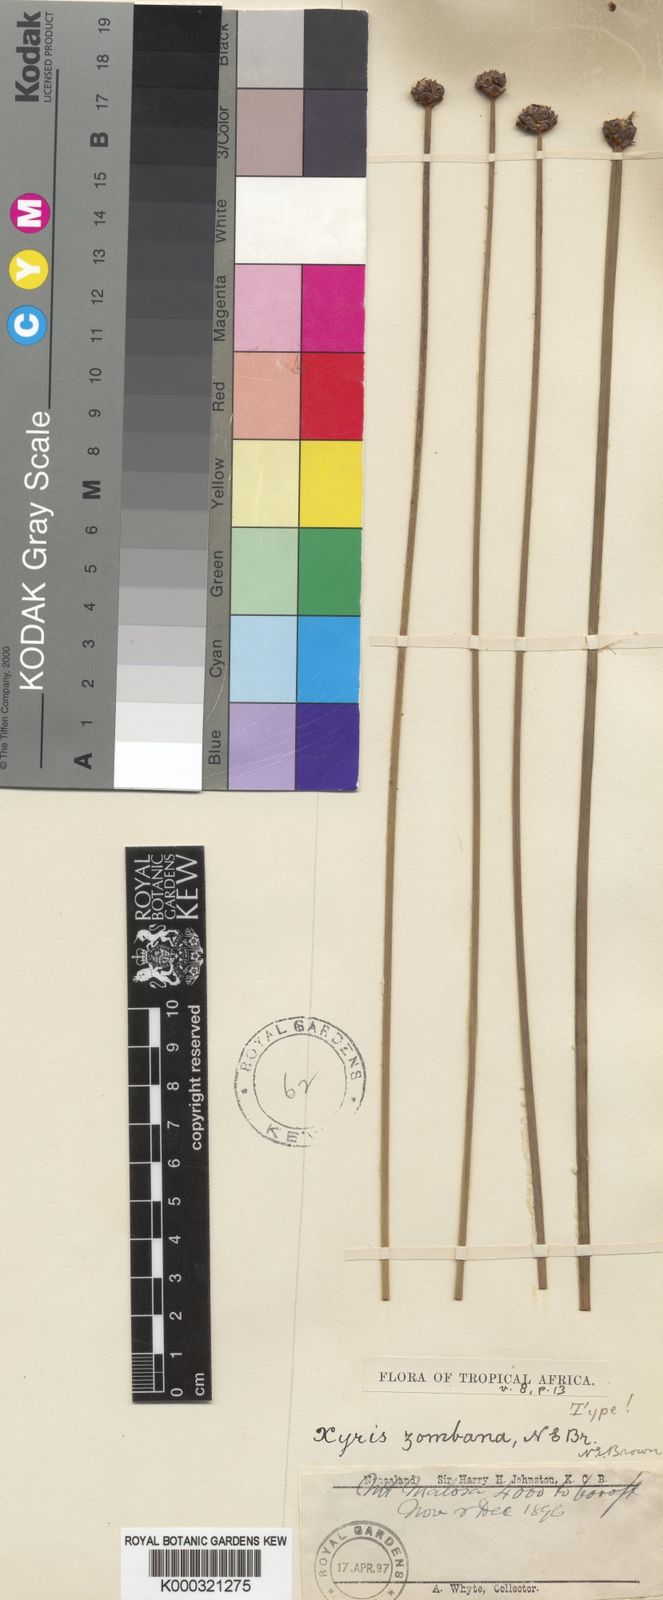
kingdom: Plantae
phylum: Tracheophyta
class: Liliopsida
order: Poales
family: Xyridaceae
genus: Xyris
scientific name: Xyris capensis
